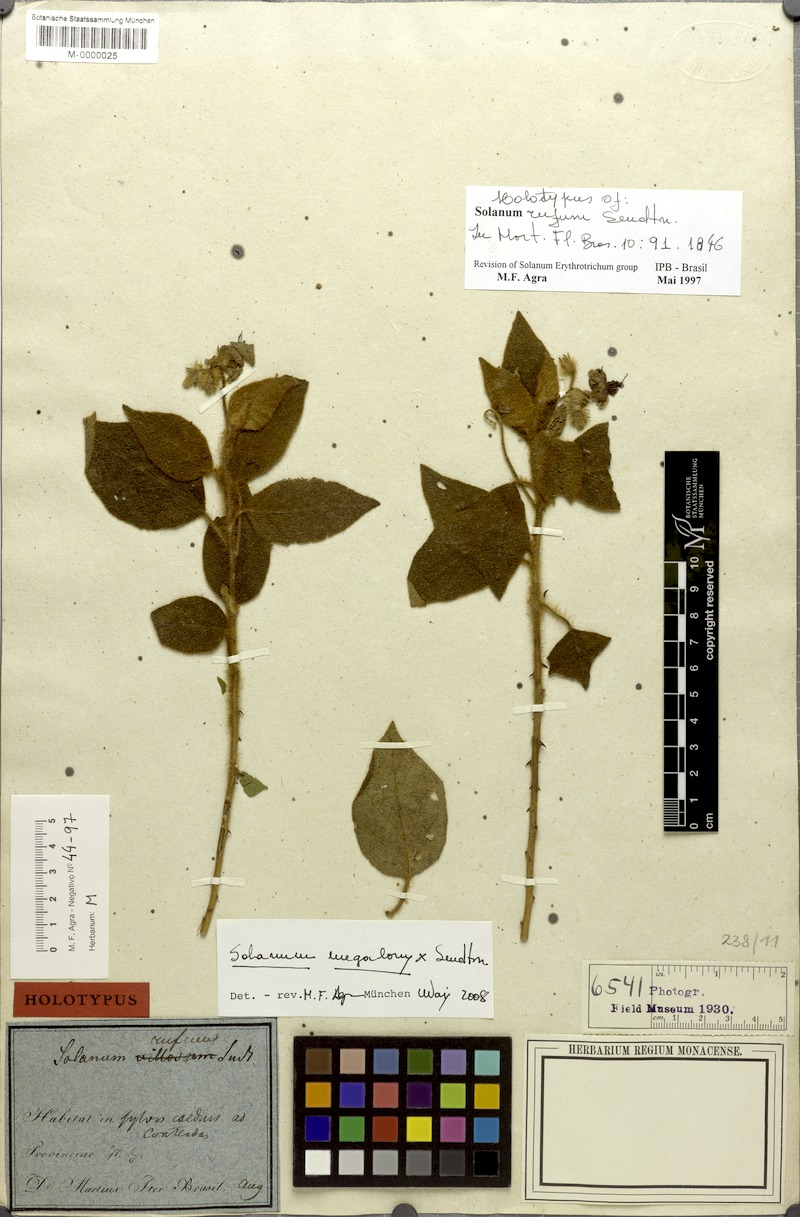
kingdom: Plantae
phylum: Tracheophyta
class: Magnoliopsida
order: Solanales
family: Solanaceae
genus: Solanum
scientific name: Solanum megalonyx
